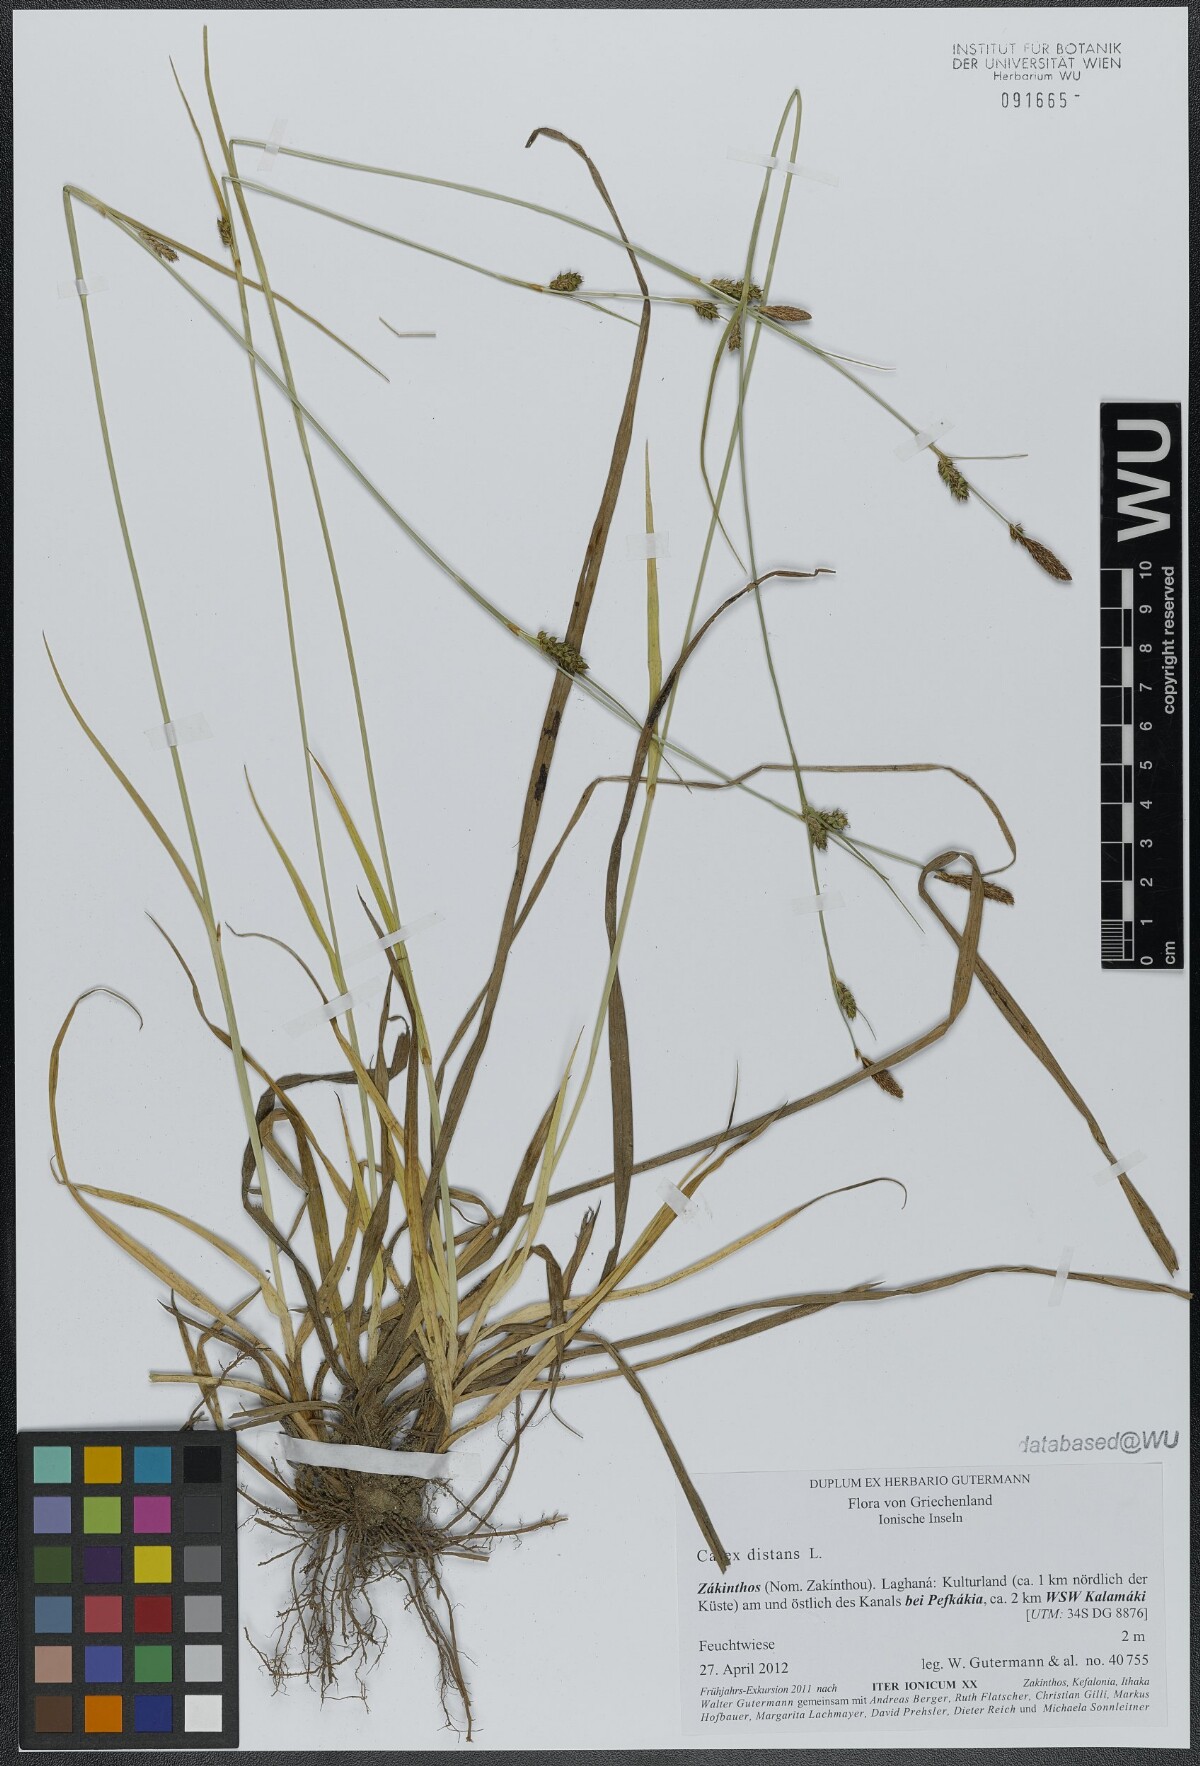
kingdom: Plantae
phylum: Tracheophyta
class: Liliopsida
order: Poales
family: Cyperaceae
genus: Carex
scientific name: Carex distans
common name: Distant sedge
